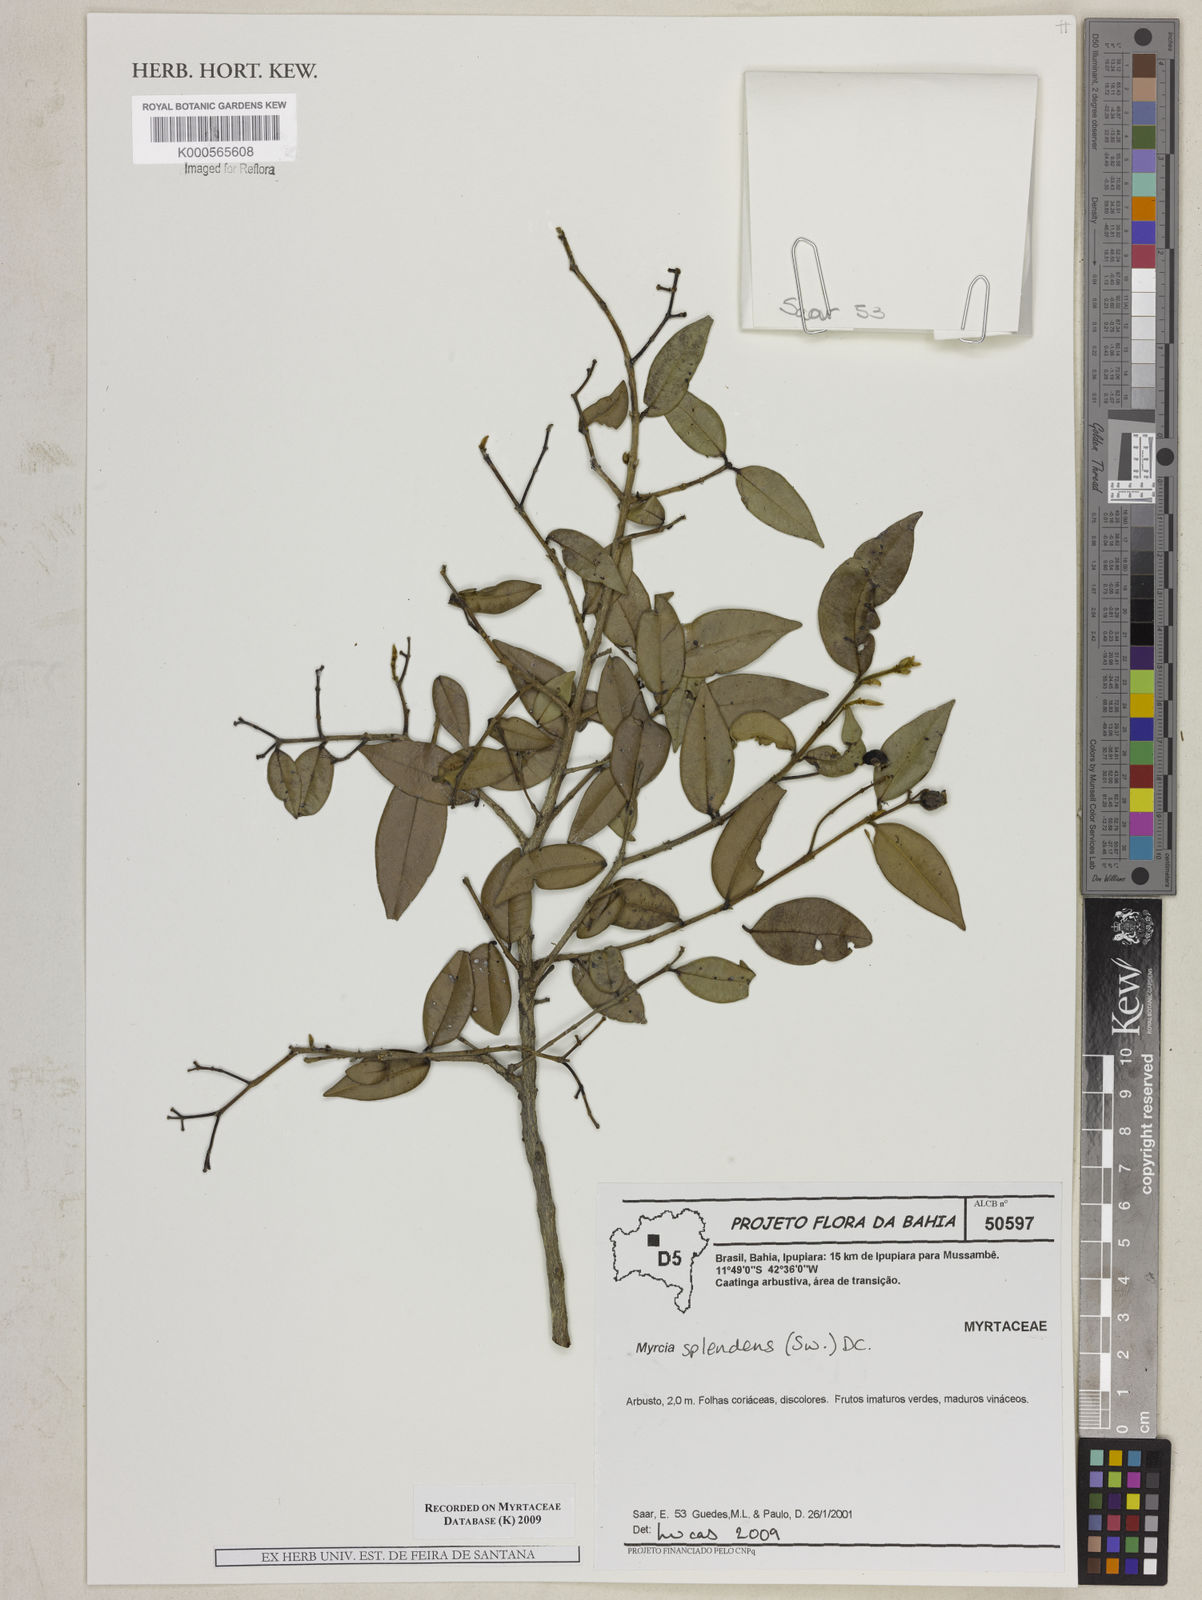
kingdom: Plantae
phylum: Tracheophyta
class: Magnoliopsida
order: Myrtales
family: Myrtaceae
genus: Myrcia
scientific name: Myrcia splendens
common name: Surinam cherry
